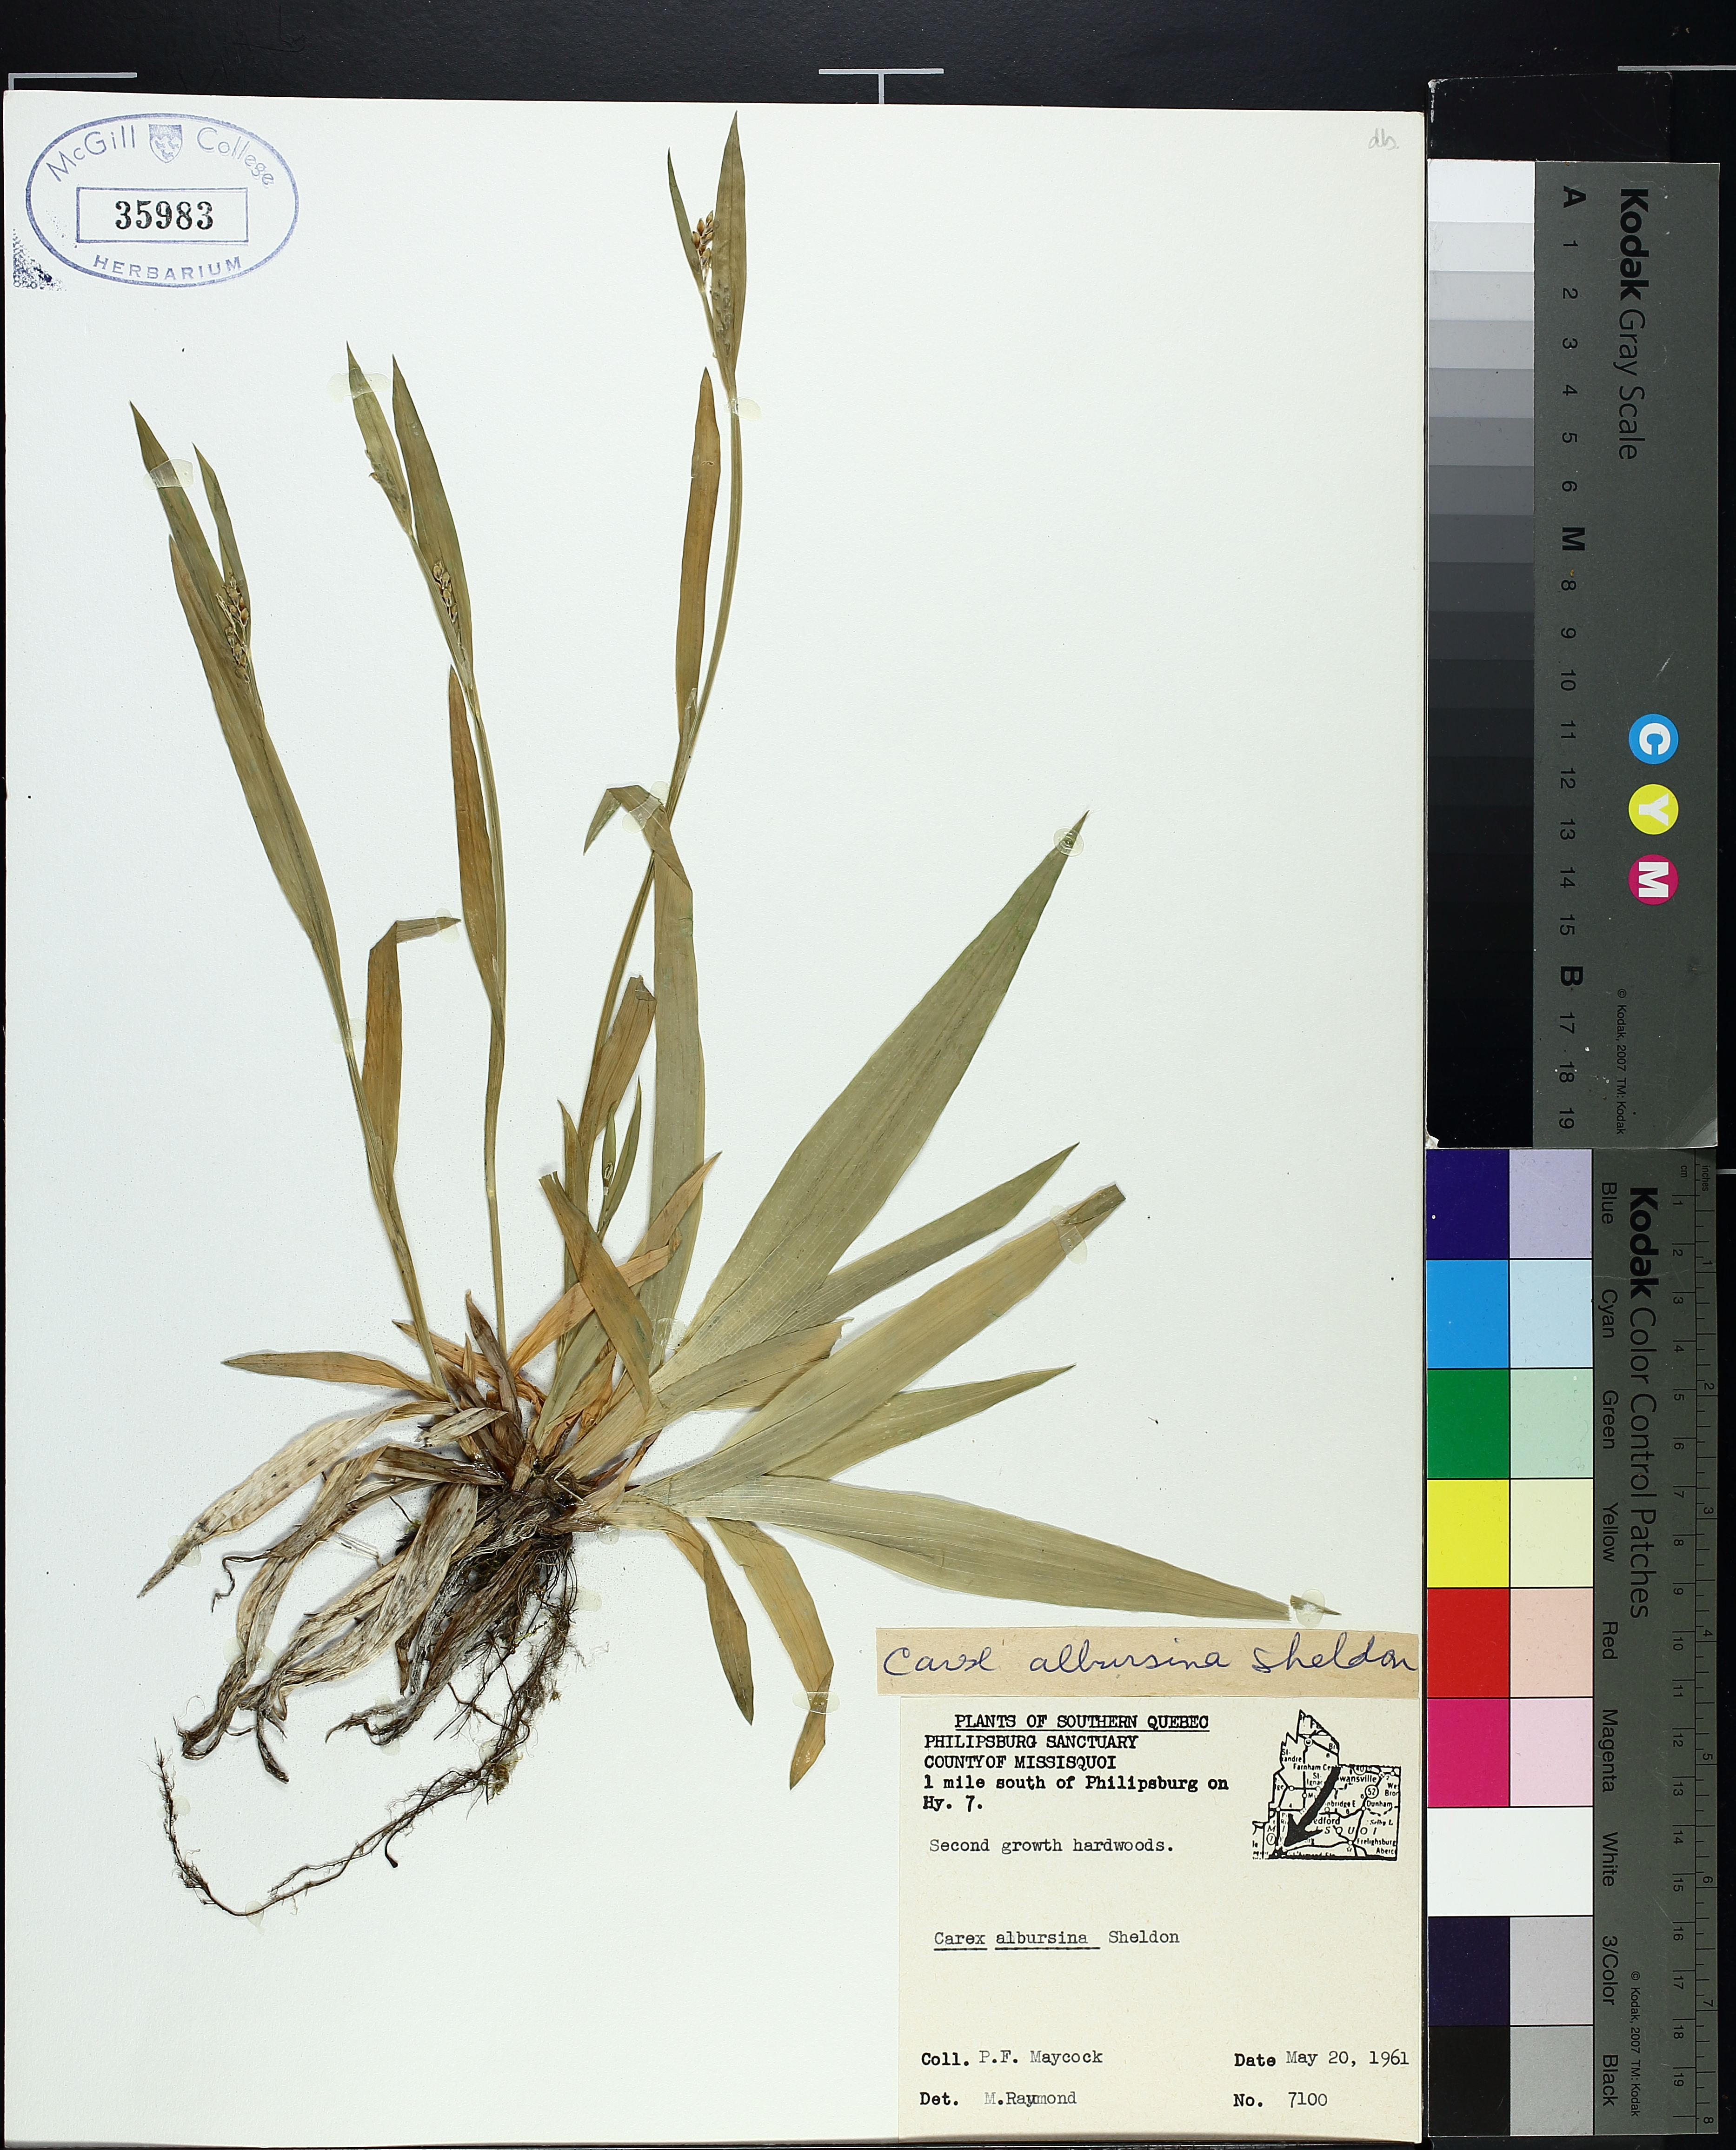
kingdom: Plantae
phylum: Tracheophyta
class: Liliopsida
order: Poales
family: Cyperaceae
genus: Carex
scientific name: Carex albursina
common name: Blunt-scale wood sedge
